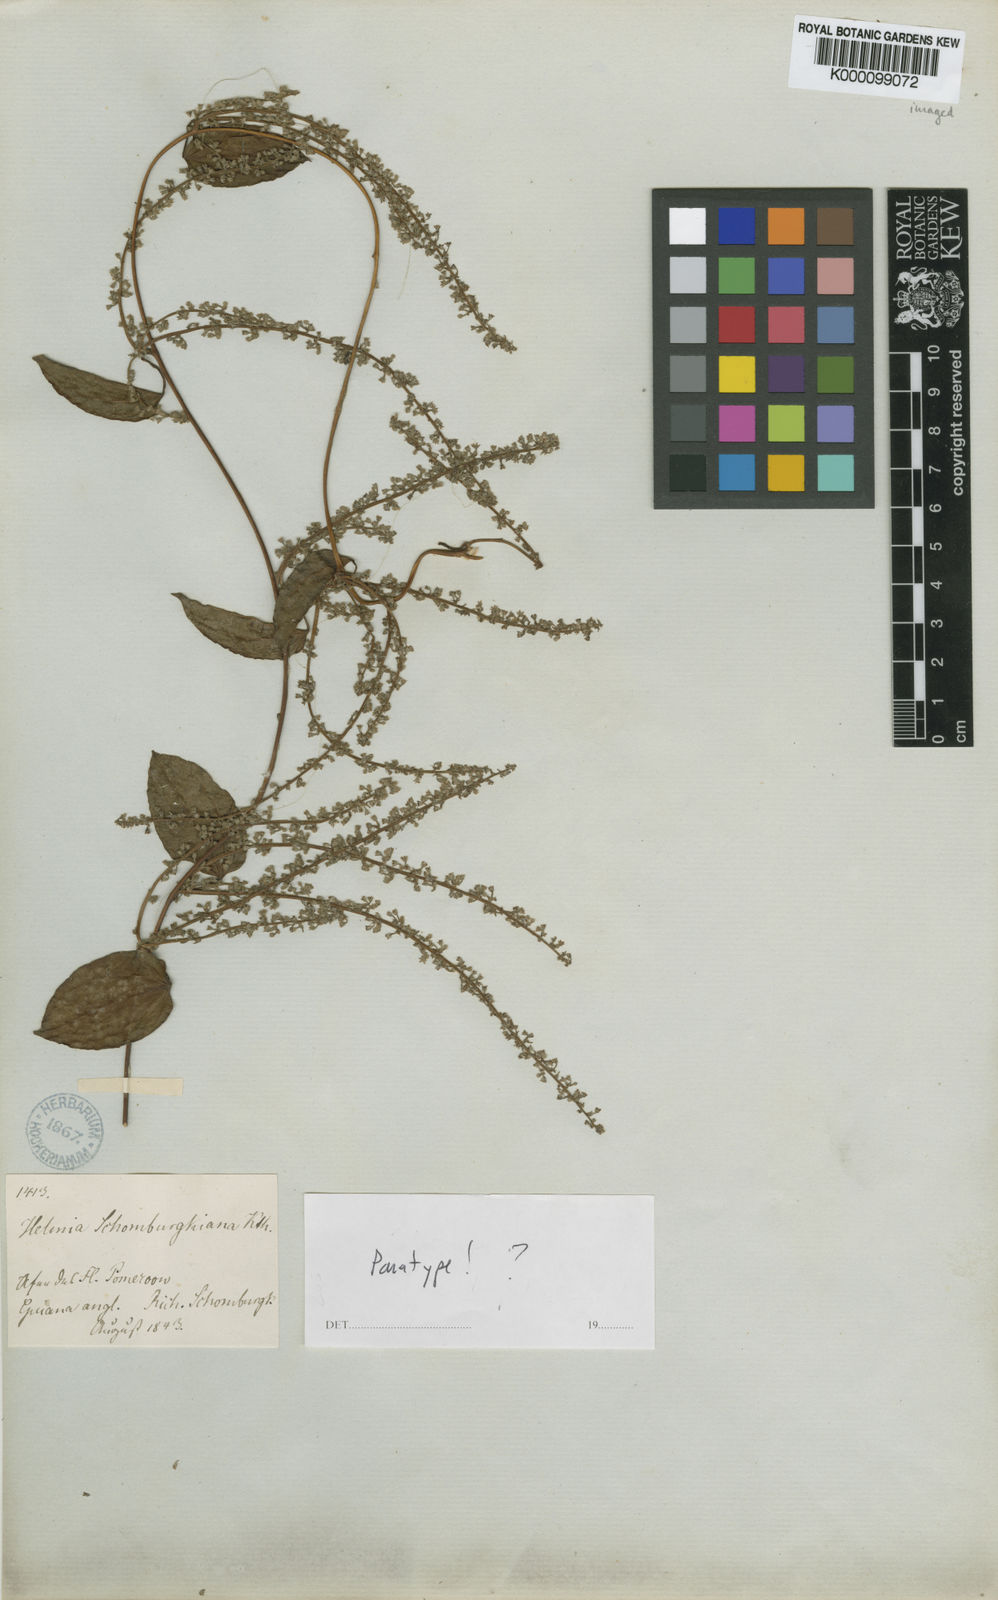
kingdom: Plantae
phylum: Tracheophyta
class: Liliopsida
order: Dioscoreales
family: Dioscoreaceae
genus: Dioscorea
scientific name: Dioscorea
